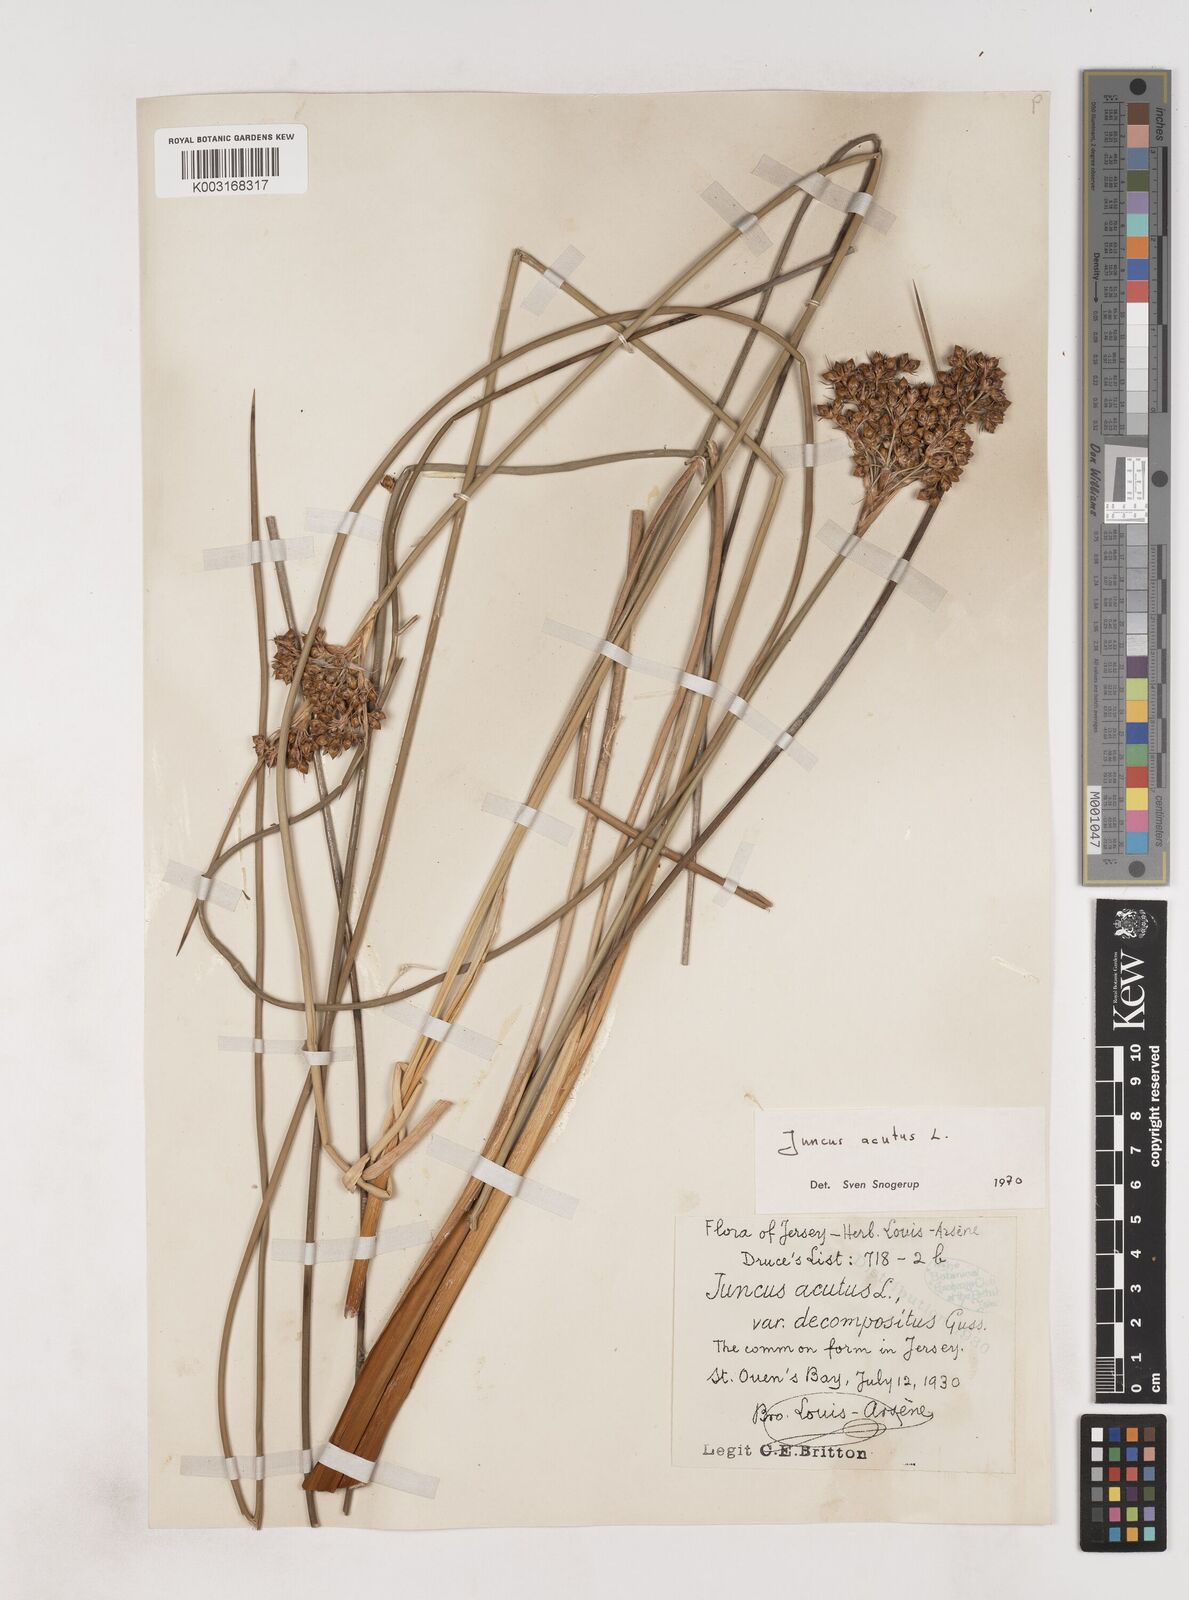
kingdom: Plantae
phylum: Tracheophyta
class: Liliopsida
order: Poales
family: Juncaceae
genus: Juncus
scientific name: Juncus acutus
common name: Sharp rush
